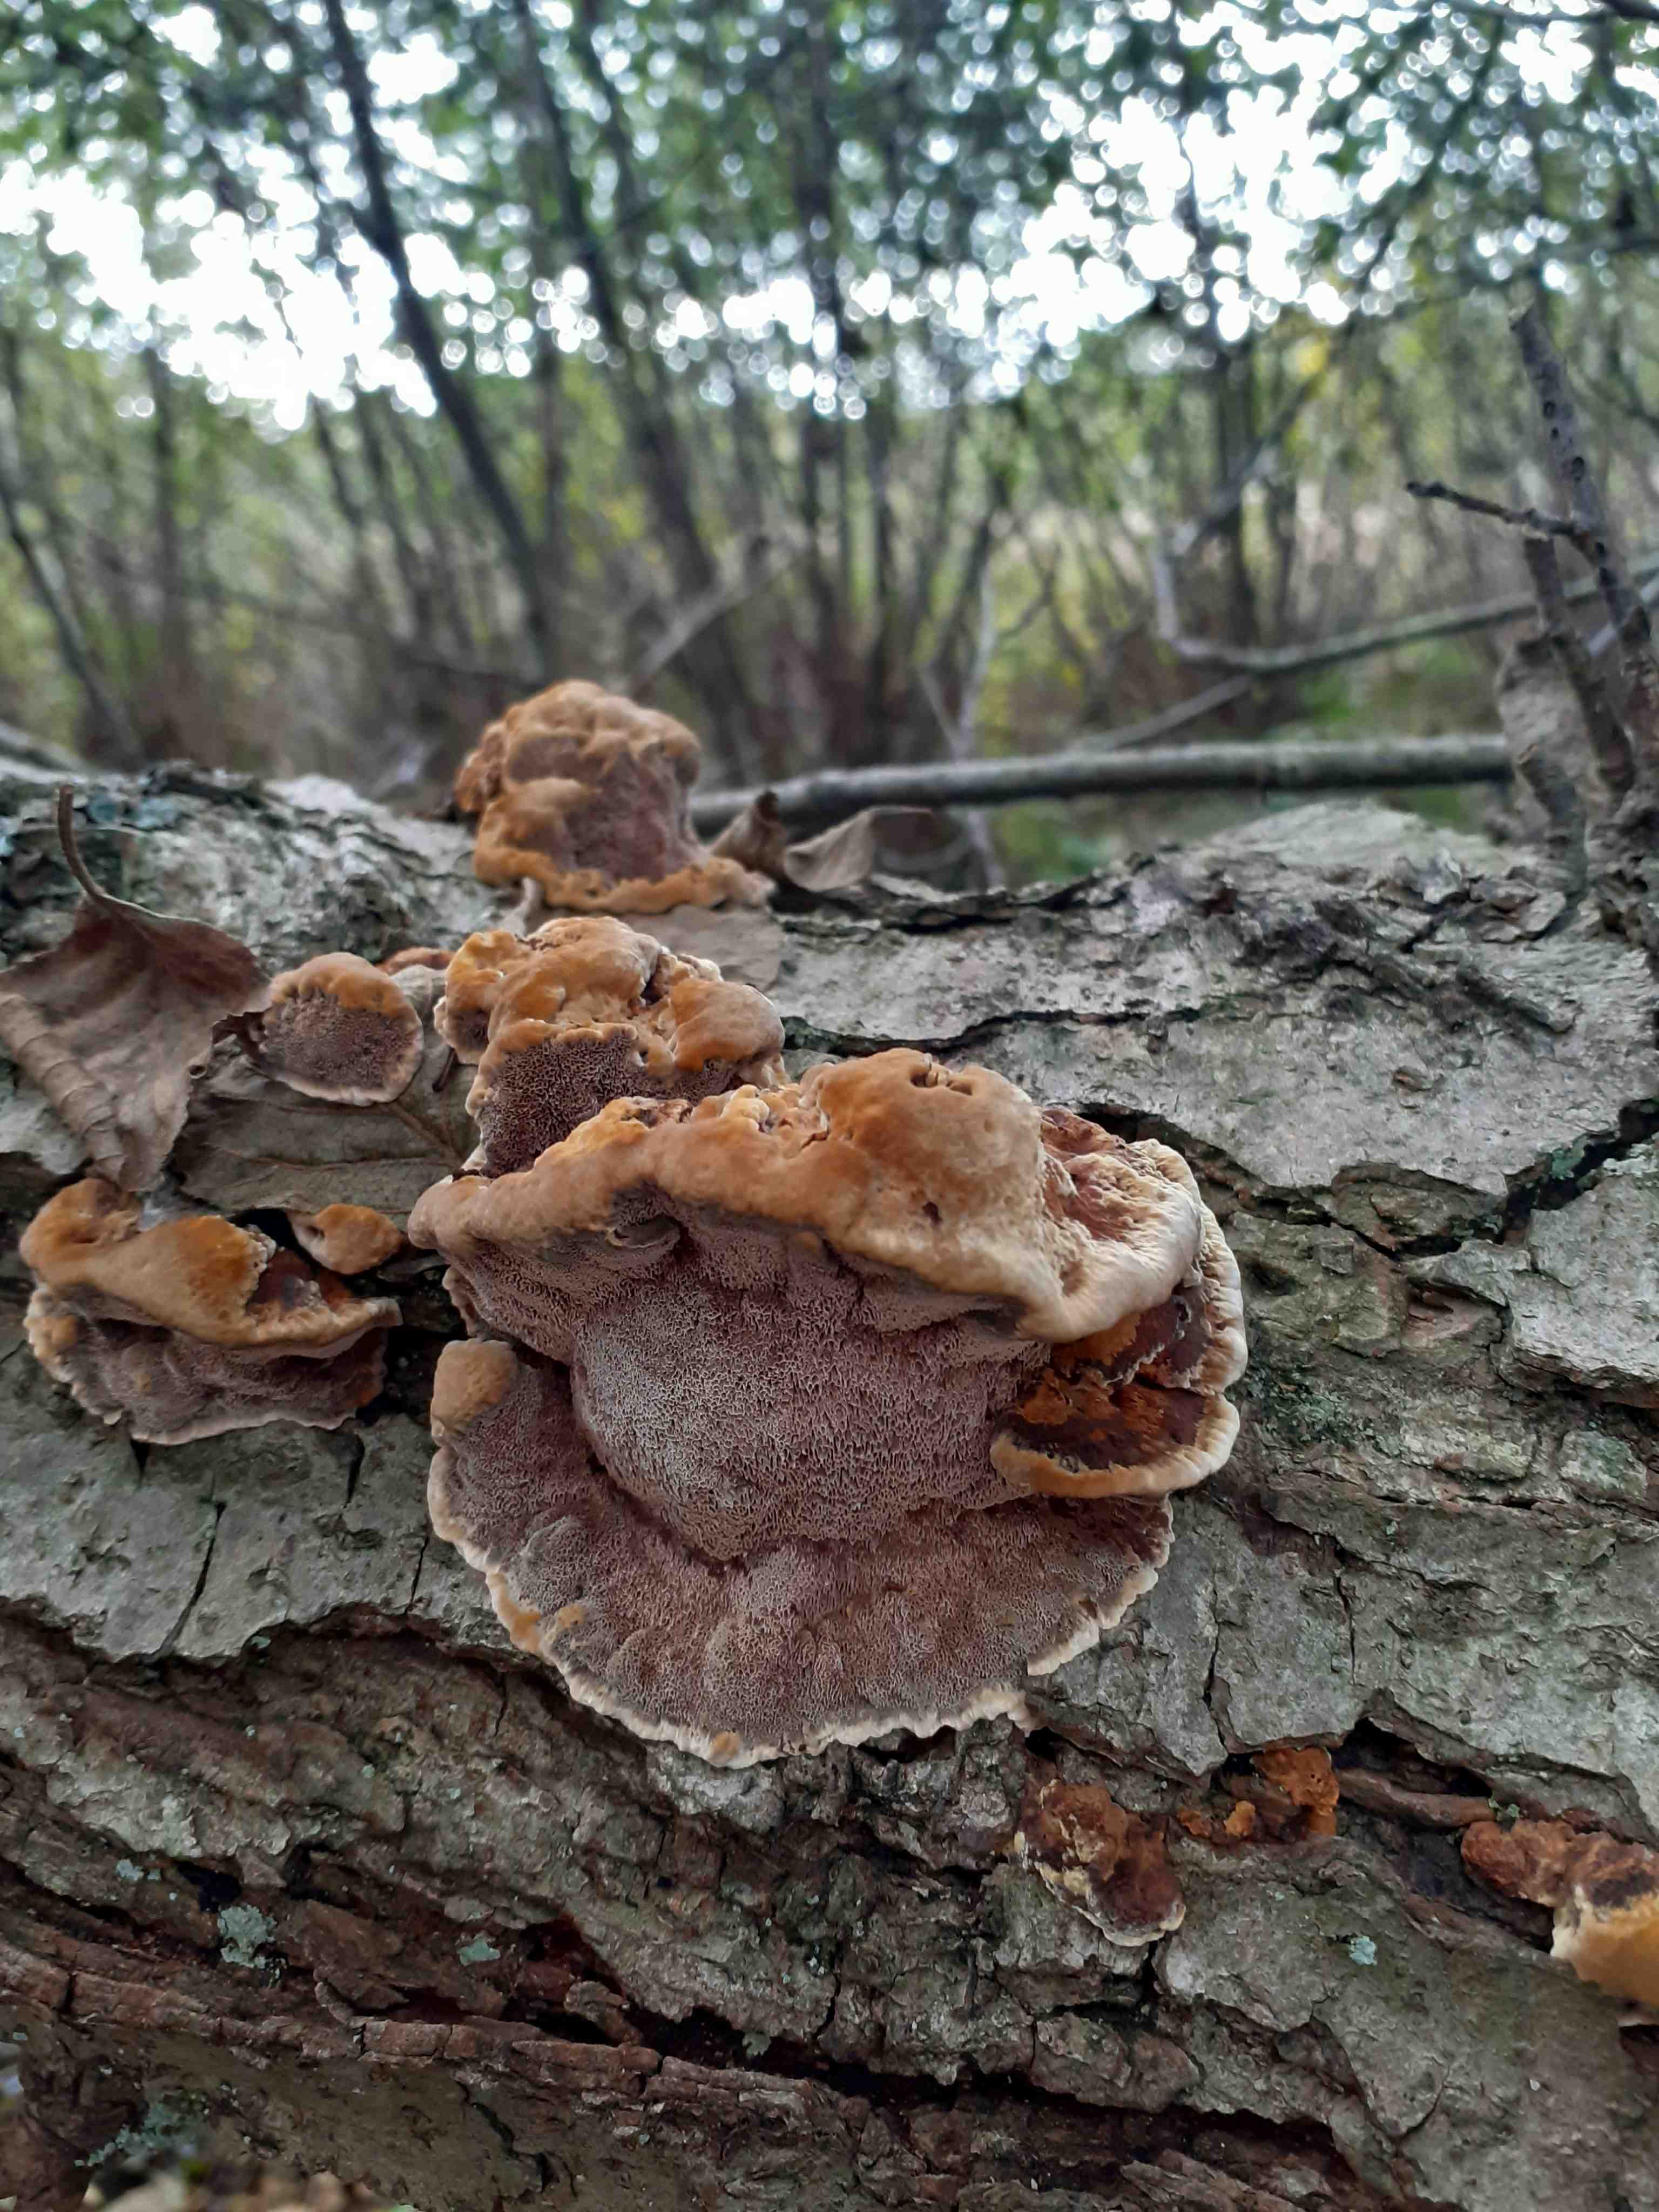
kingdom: Fungi
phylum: Basidiomycota
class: Agaricomycetes
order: Hymenochaetales
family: Hymenochaetaceae
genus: Xanthoporia
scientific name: Xanthoporia radiata
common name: elle-spejlporesvamp
